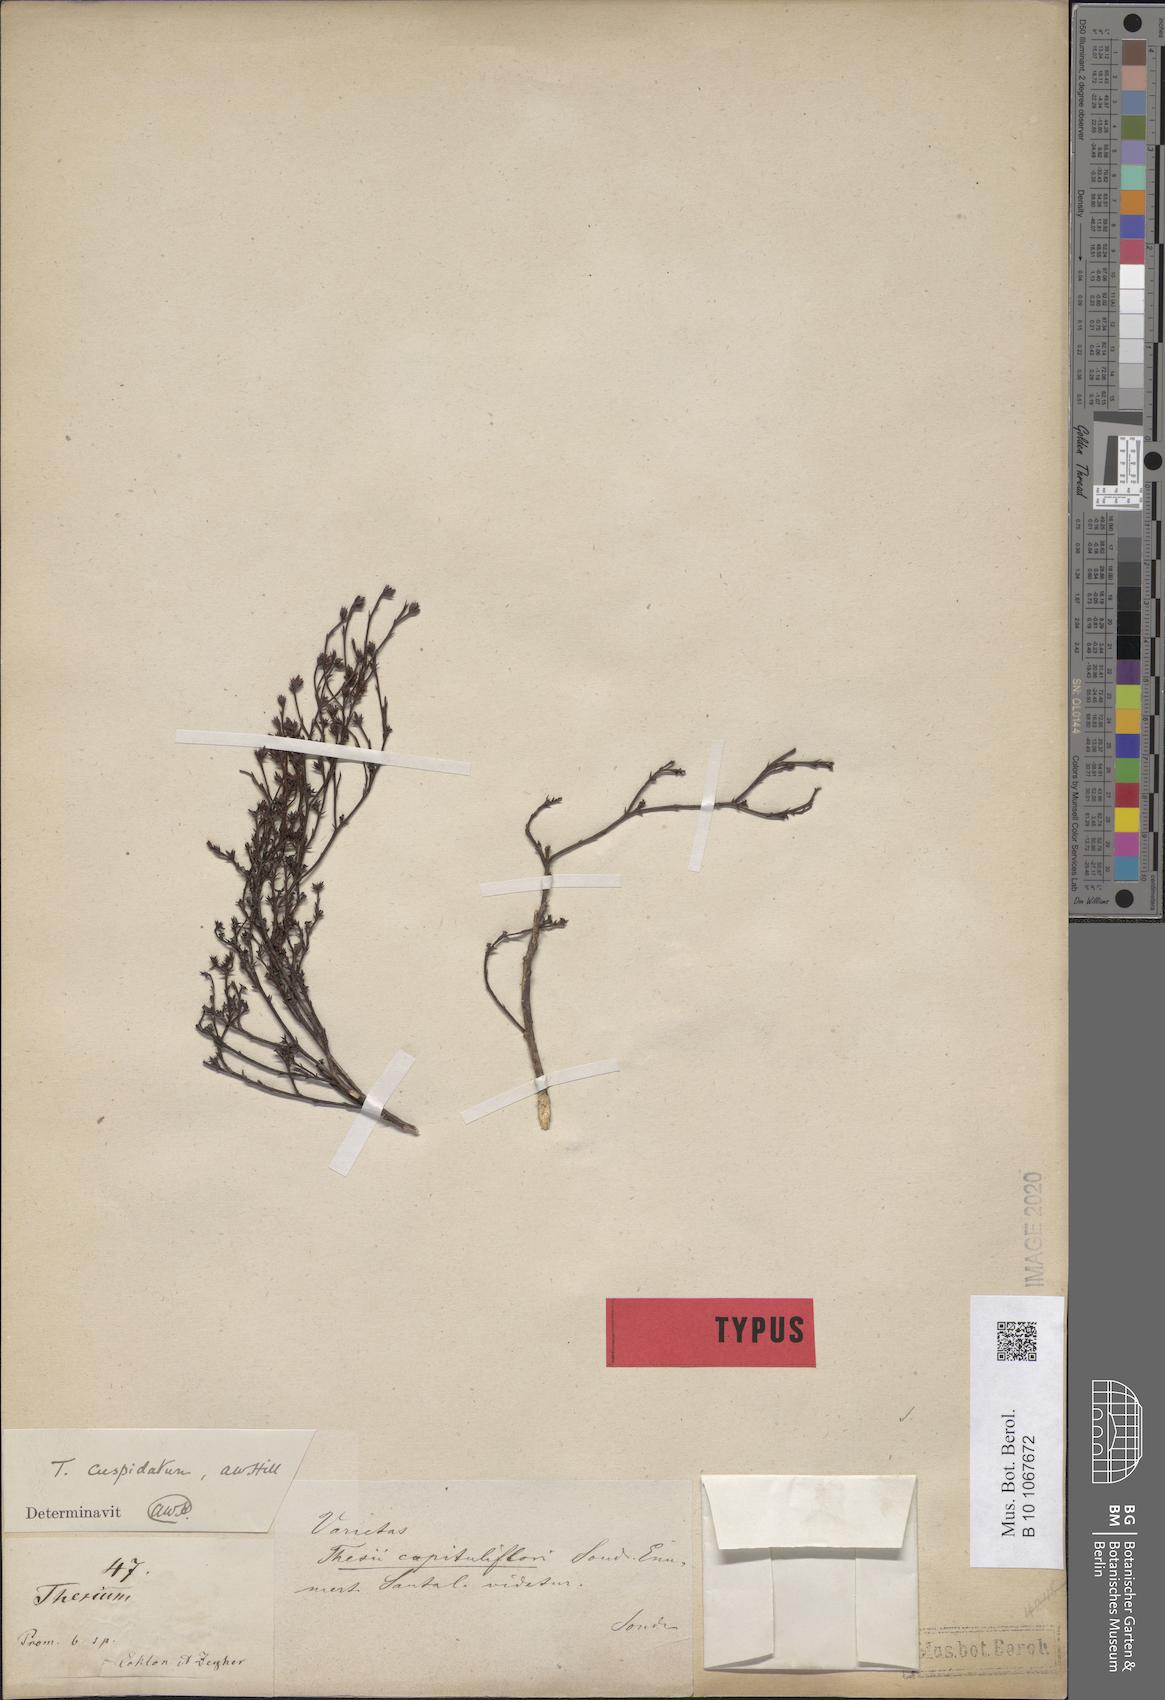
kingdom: Plantae
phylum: Tracheophyta
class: Magnoliopsida
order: Santalales
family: Thesiaceae
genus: Thesium
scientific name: Thesium capituliflorum
